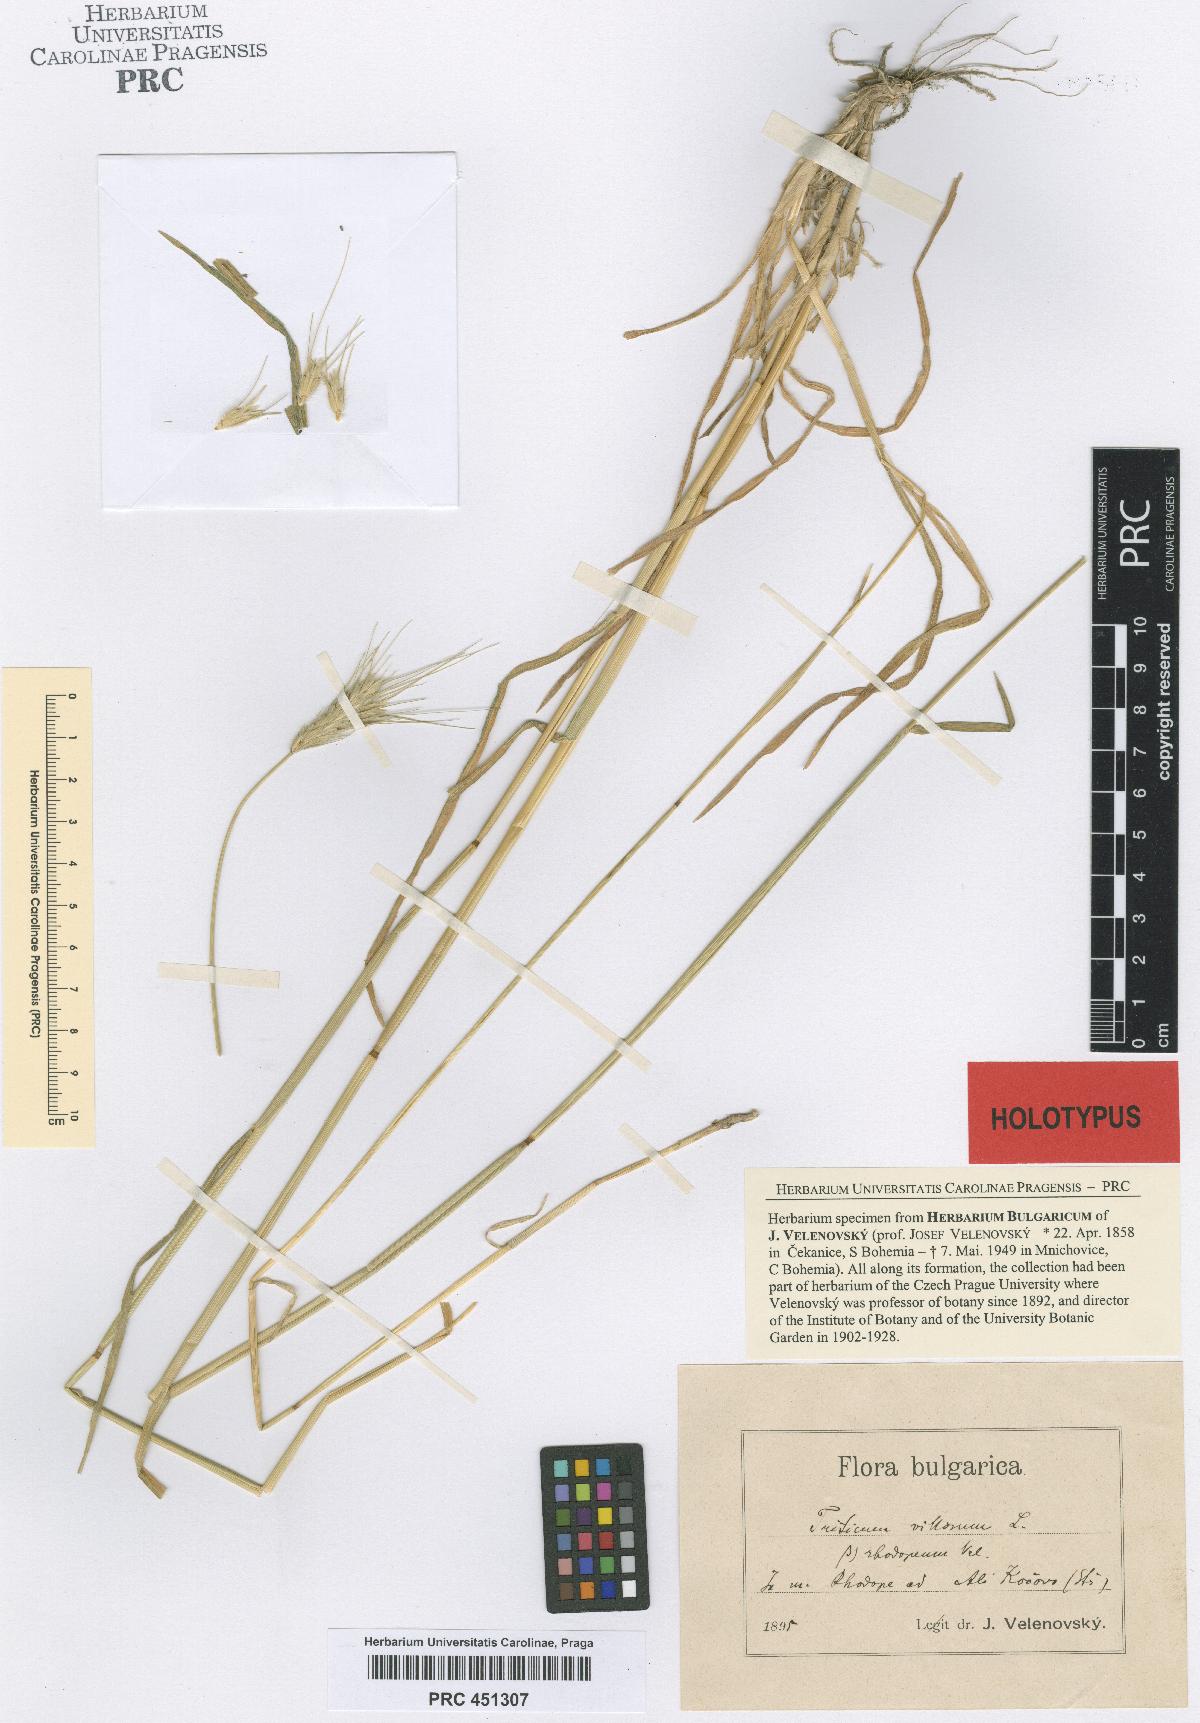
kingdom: Plantae
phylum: Tracheophyta
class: Liliopsida
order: Poales
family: Poaceae
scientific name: Poaceae
